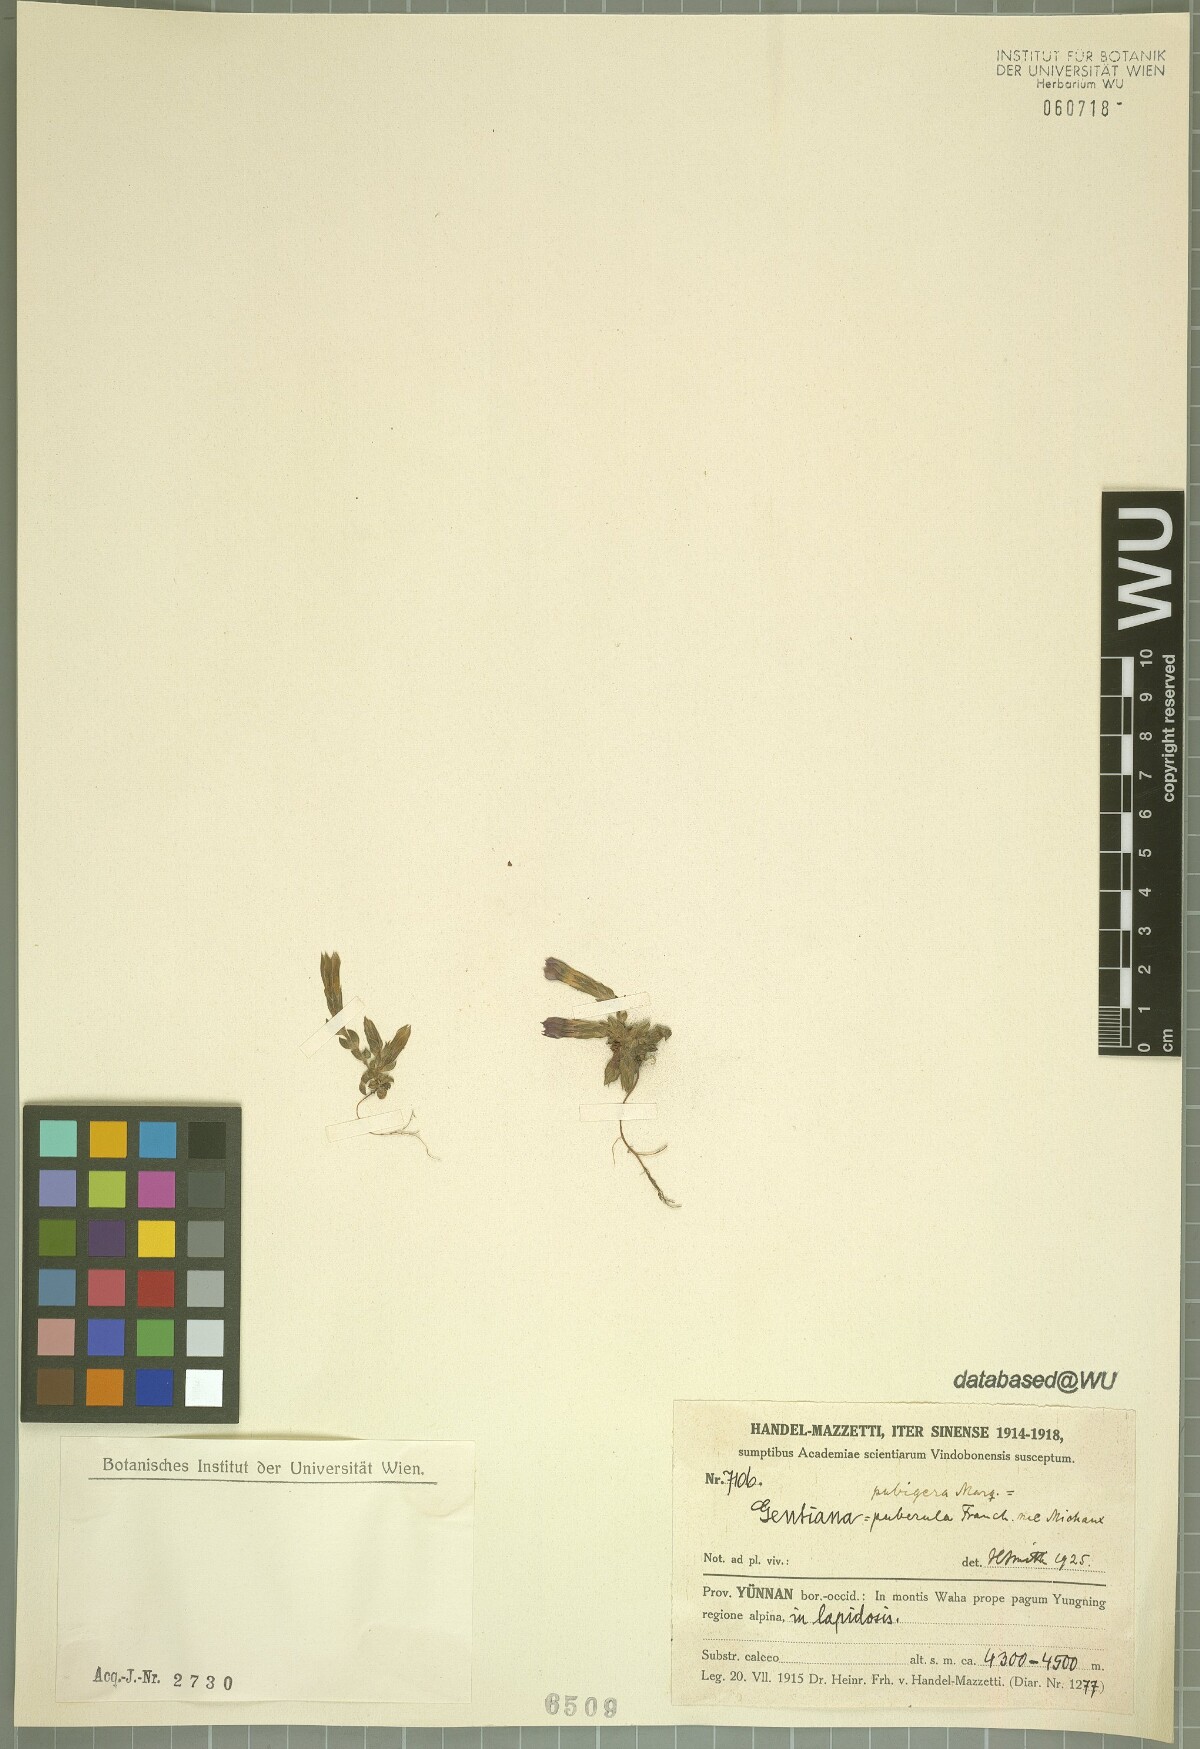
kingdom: Plantae
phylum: Tracheophyta
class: Magnoliopsida
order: Gentianales
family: Gentianaceae
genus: Gentiana
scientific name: Gentiana pubigera
